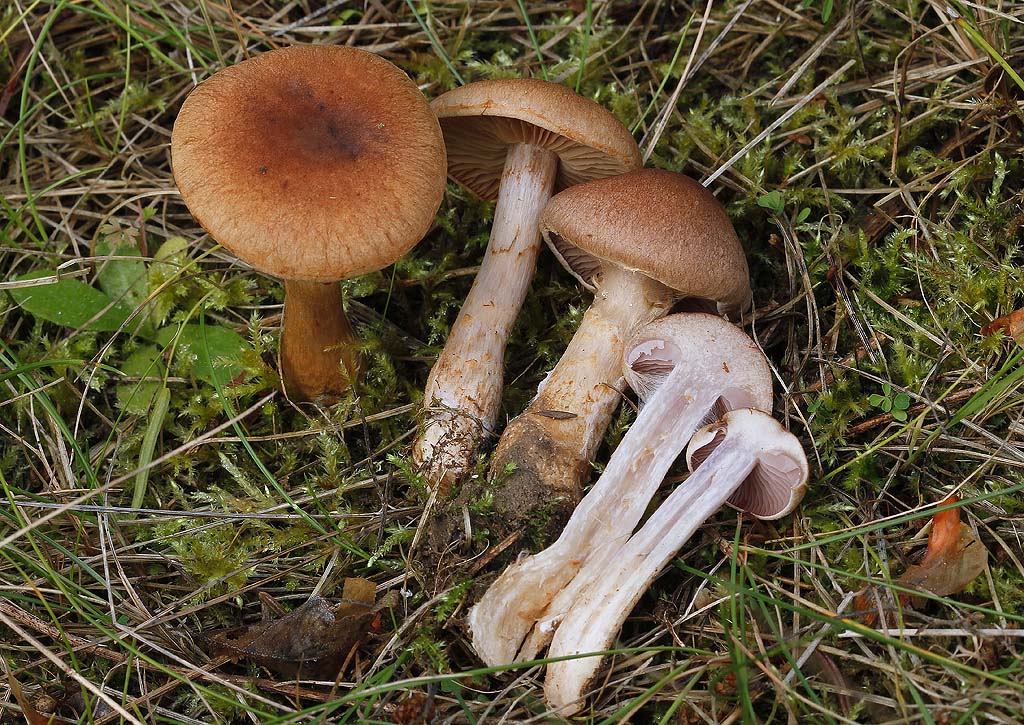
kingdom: Fungi
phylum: Basidiomycota
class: Agaricomycetes
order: Agaricales
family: Cortinariaceae
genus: Cortinarius
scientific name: Cortinarius caninus
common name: gran-slørhat
